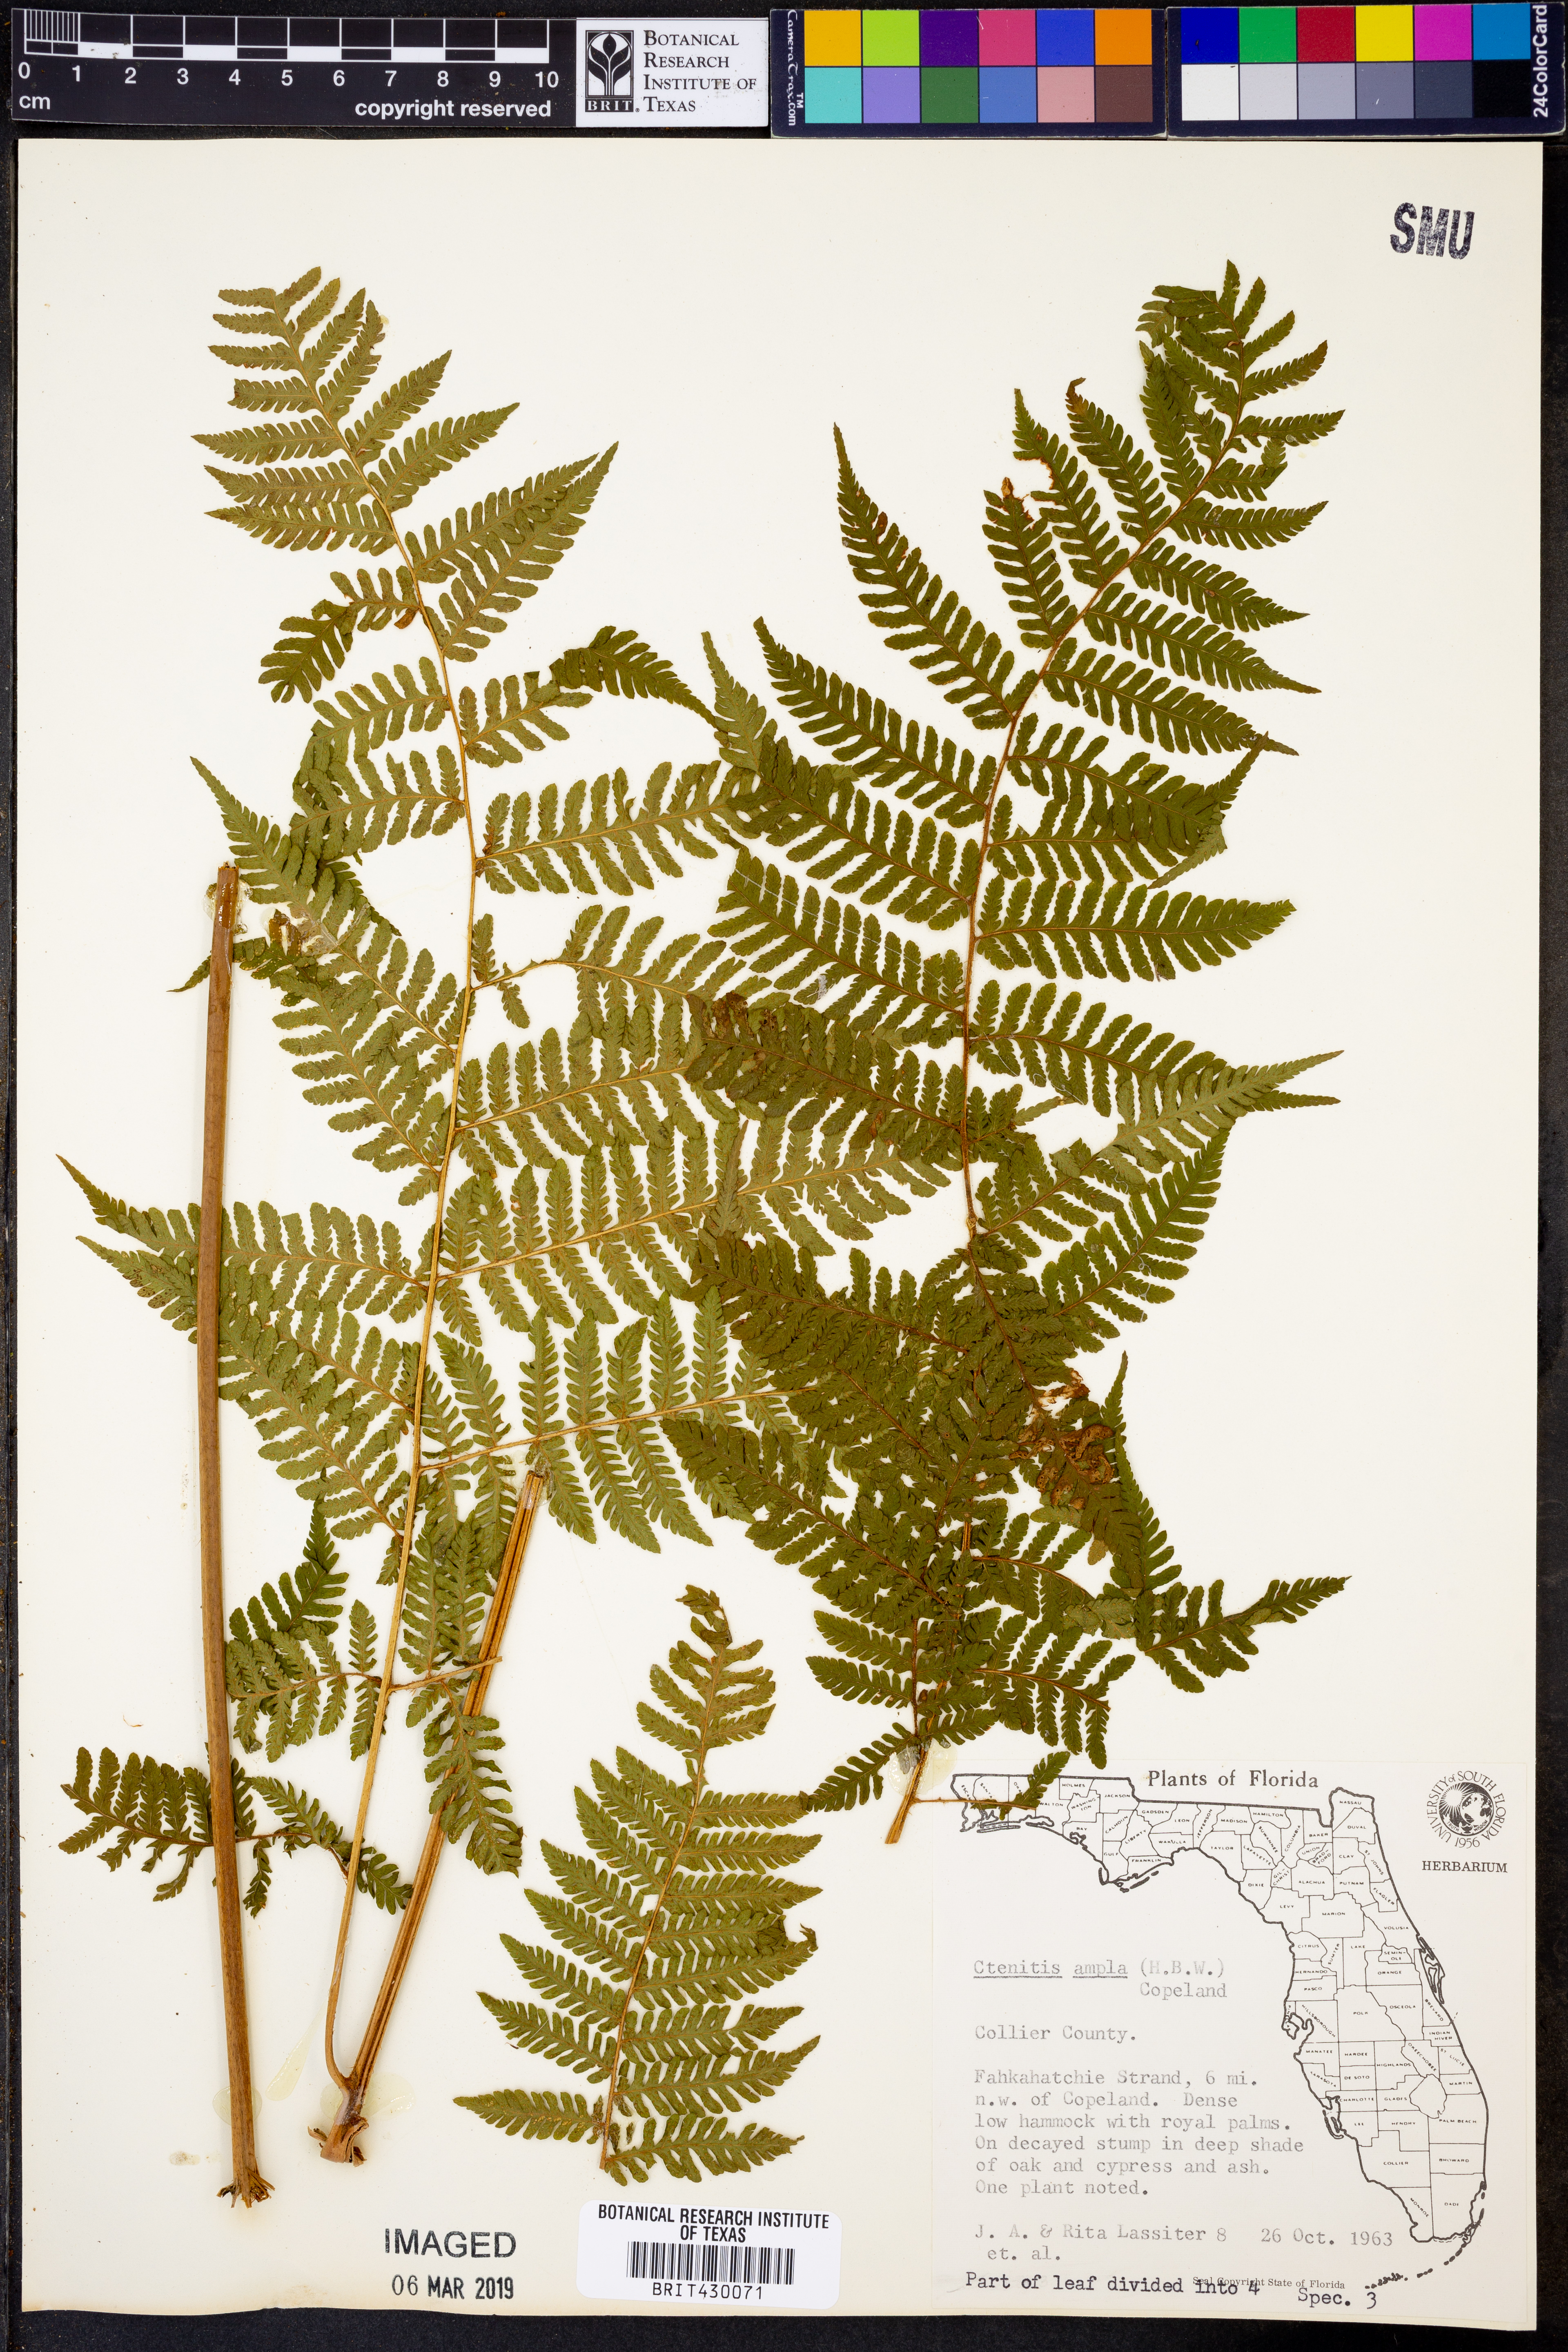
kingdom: Plantae
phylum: Tracheophyta
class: Polypodiopsida
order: Polypodiales
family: Dryopteridaceae
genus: Ctenitis
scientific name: Ctenitis sloanei
